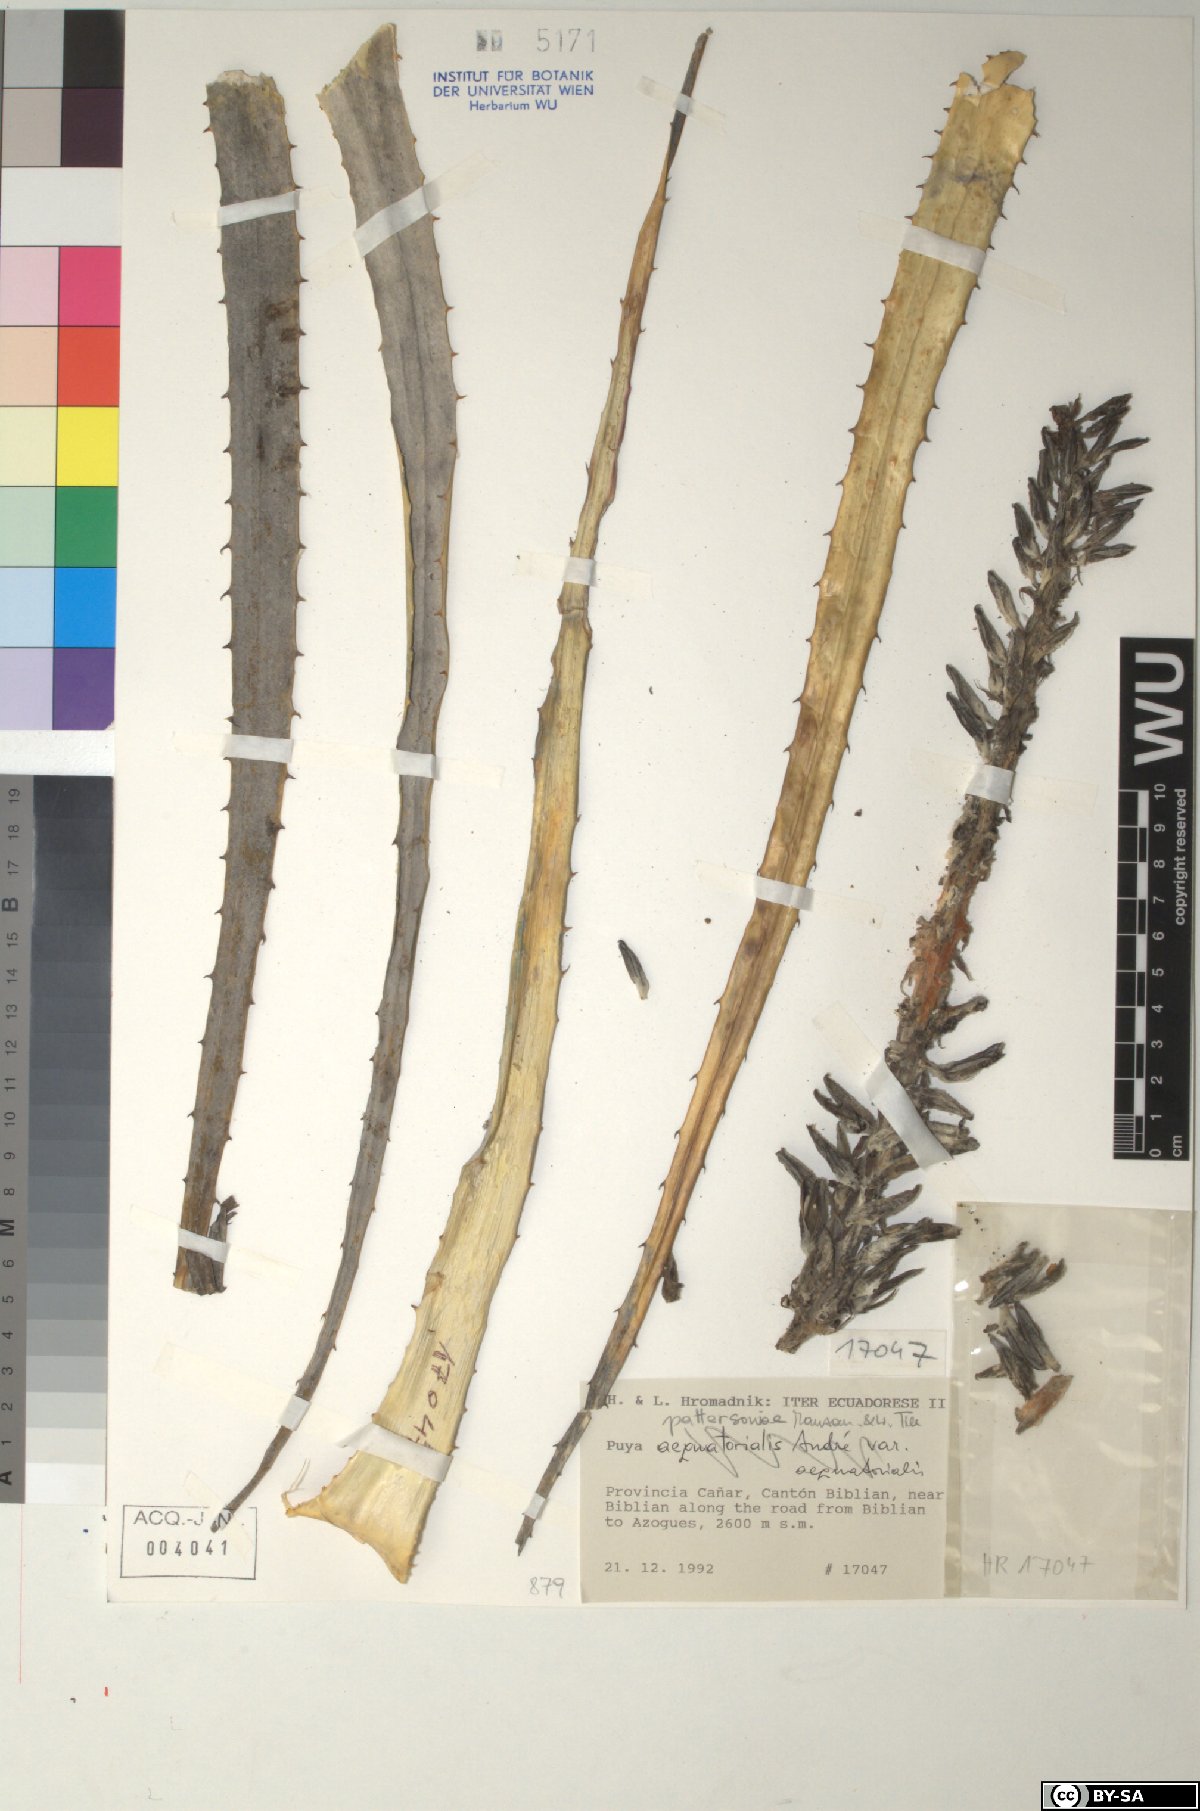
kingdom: Plantae
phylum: Tracheophyta
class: Liliopsida
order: Poales
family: Bromeliaceae
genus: Puya
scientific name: Puya pattersoniae
